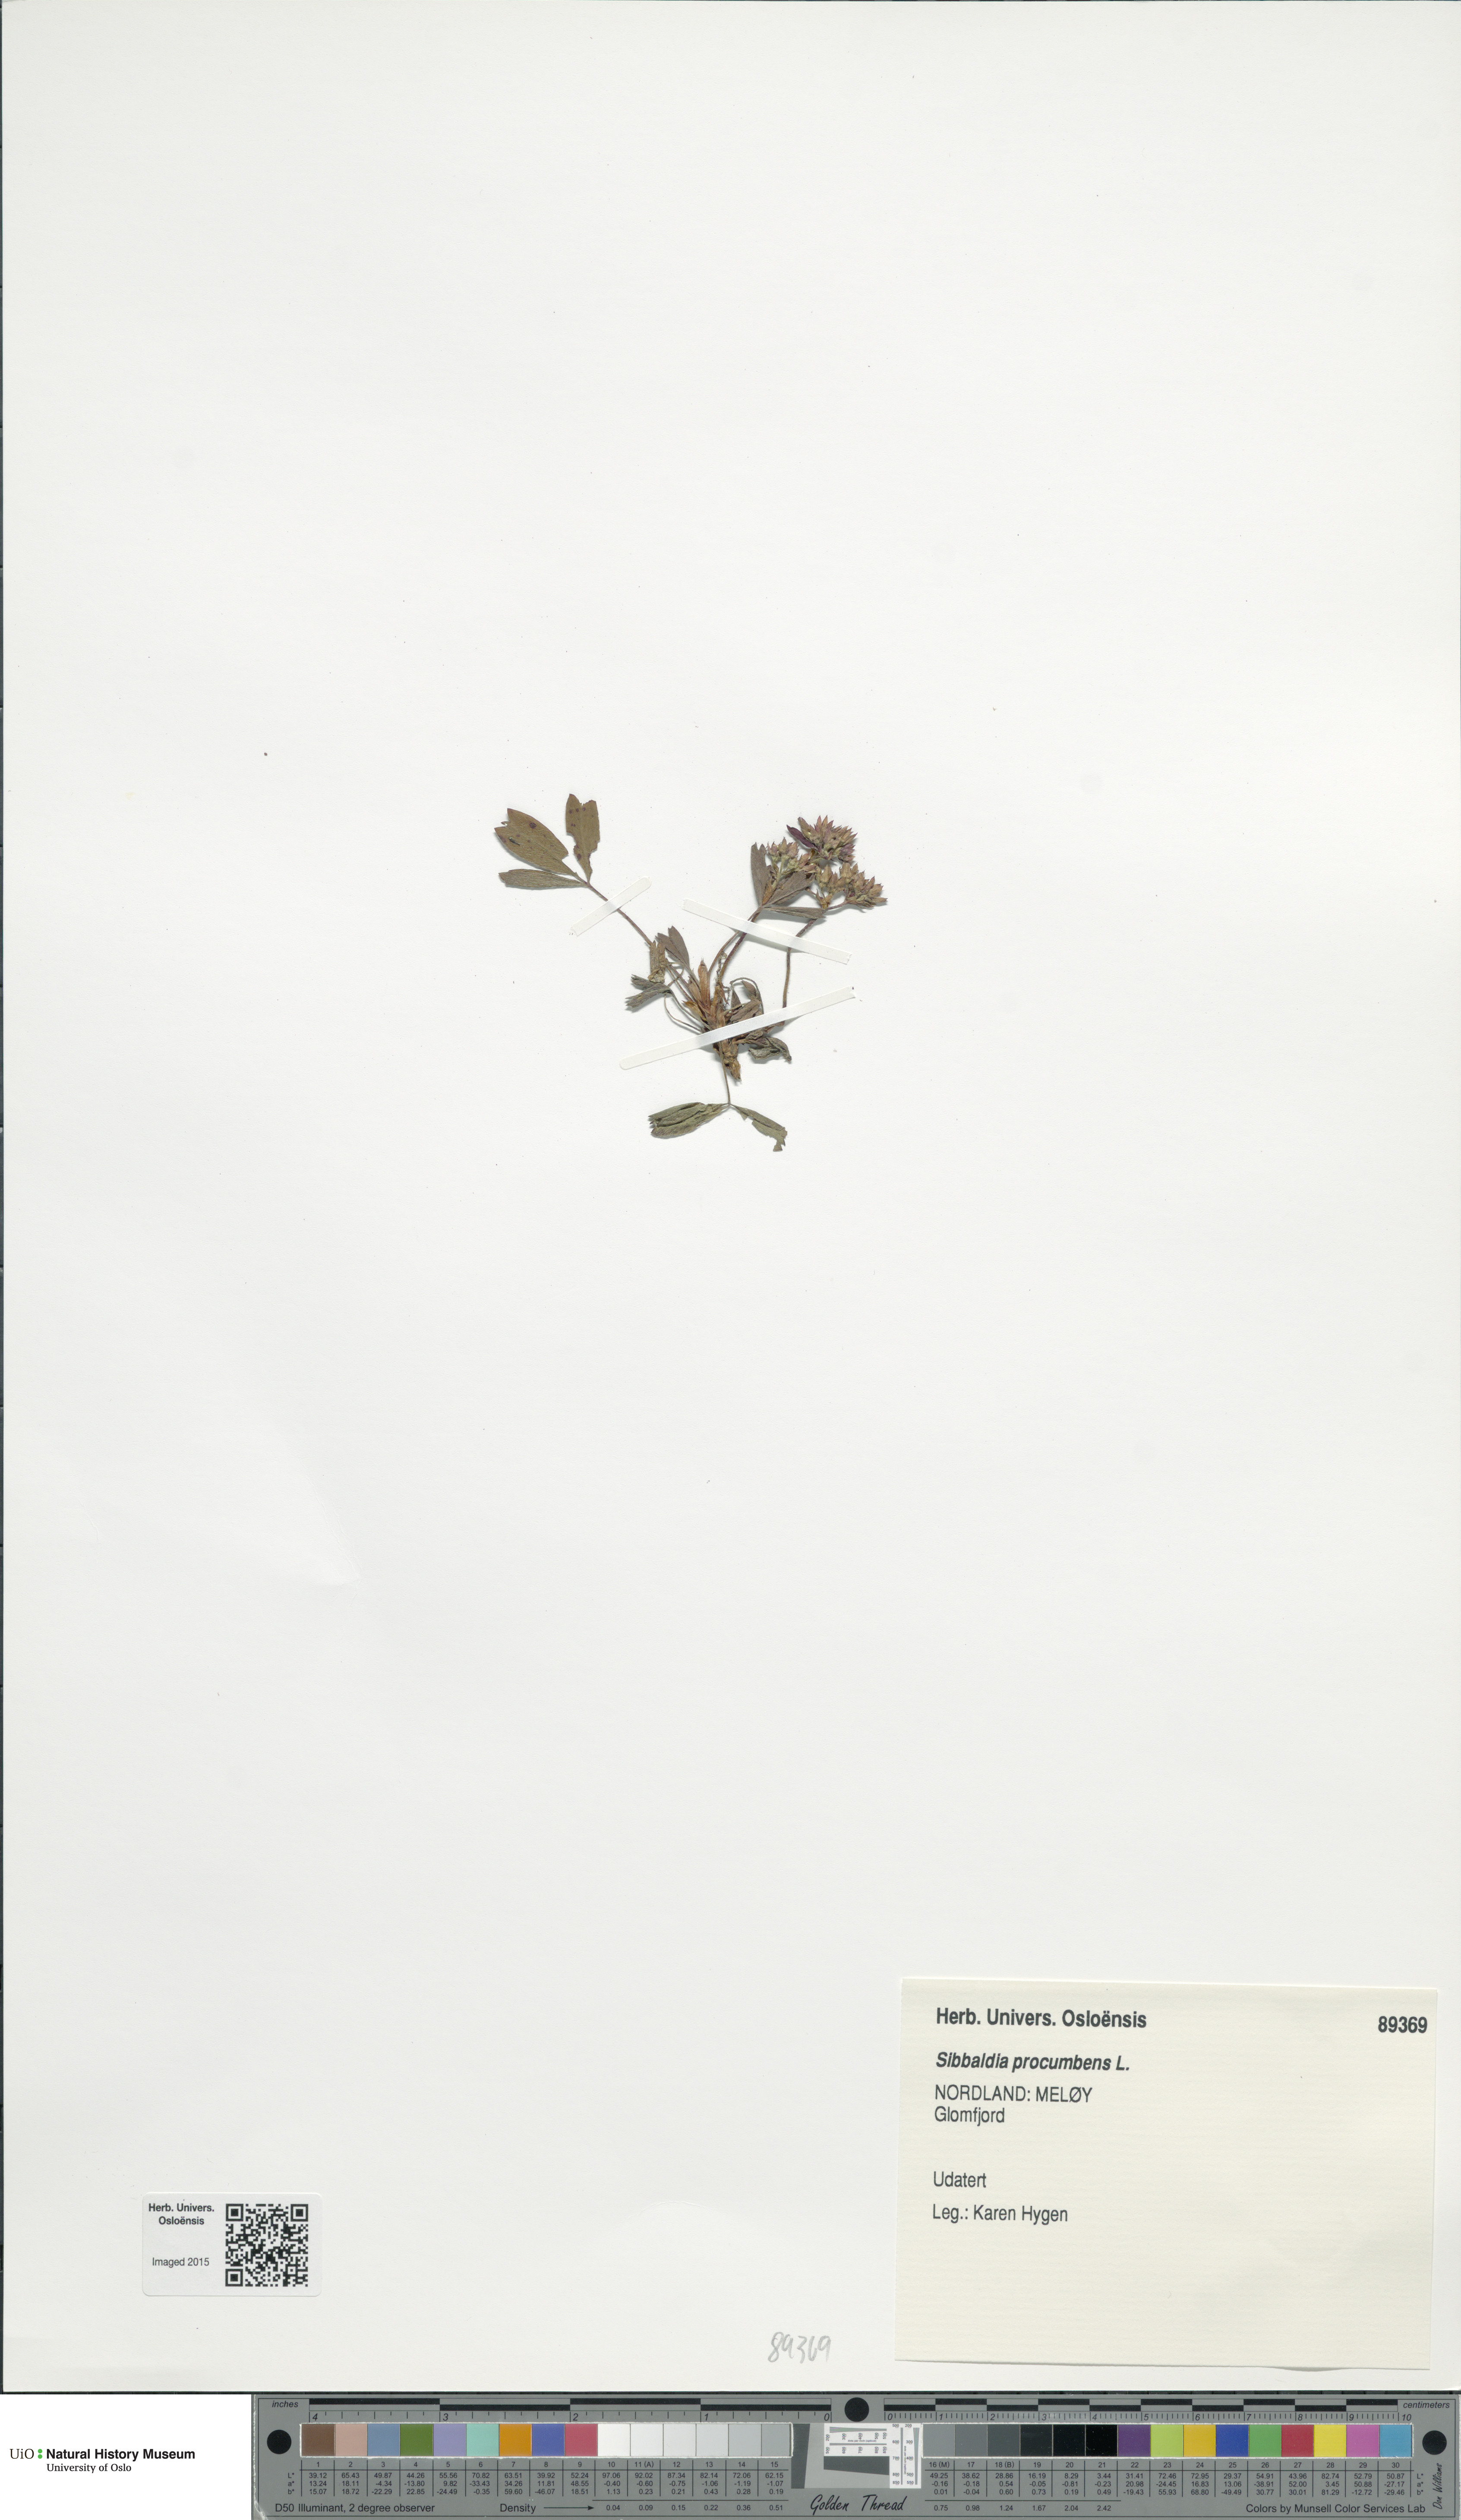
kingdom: Plantae
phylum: Tracheophyta
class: Magnoliopsida
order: Rosales
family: Rosaceae
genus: Sibbaldia
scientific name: Sibbaldia procumbens
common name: Creeping sibbaldia
